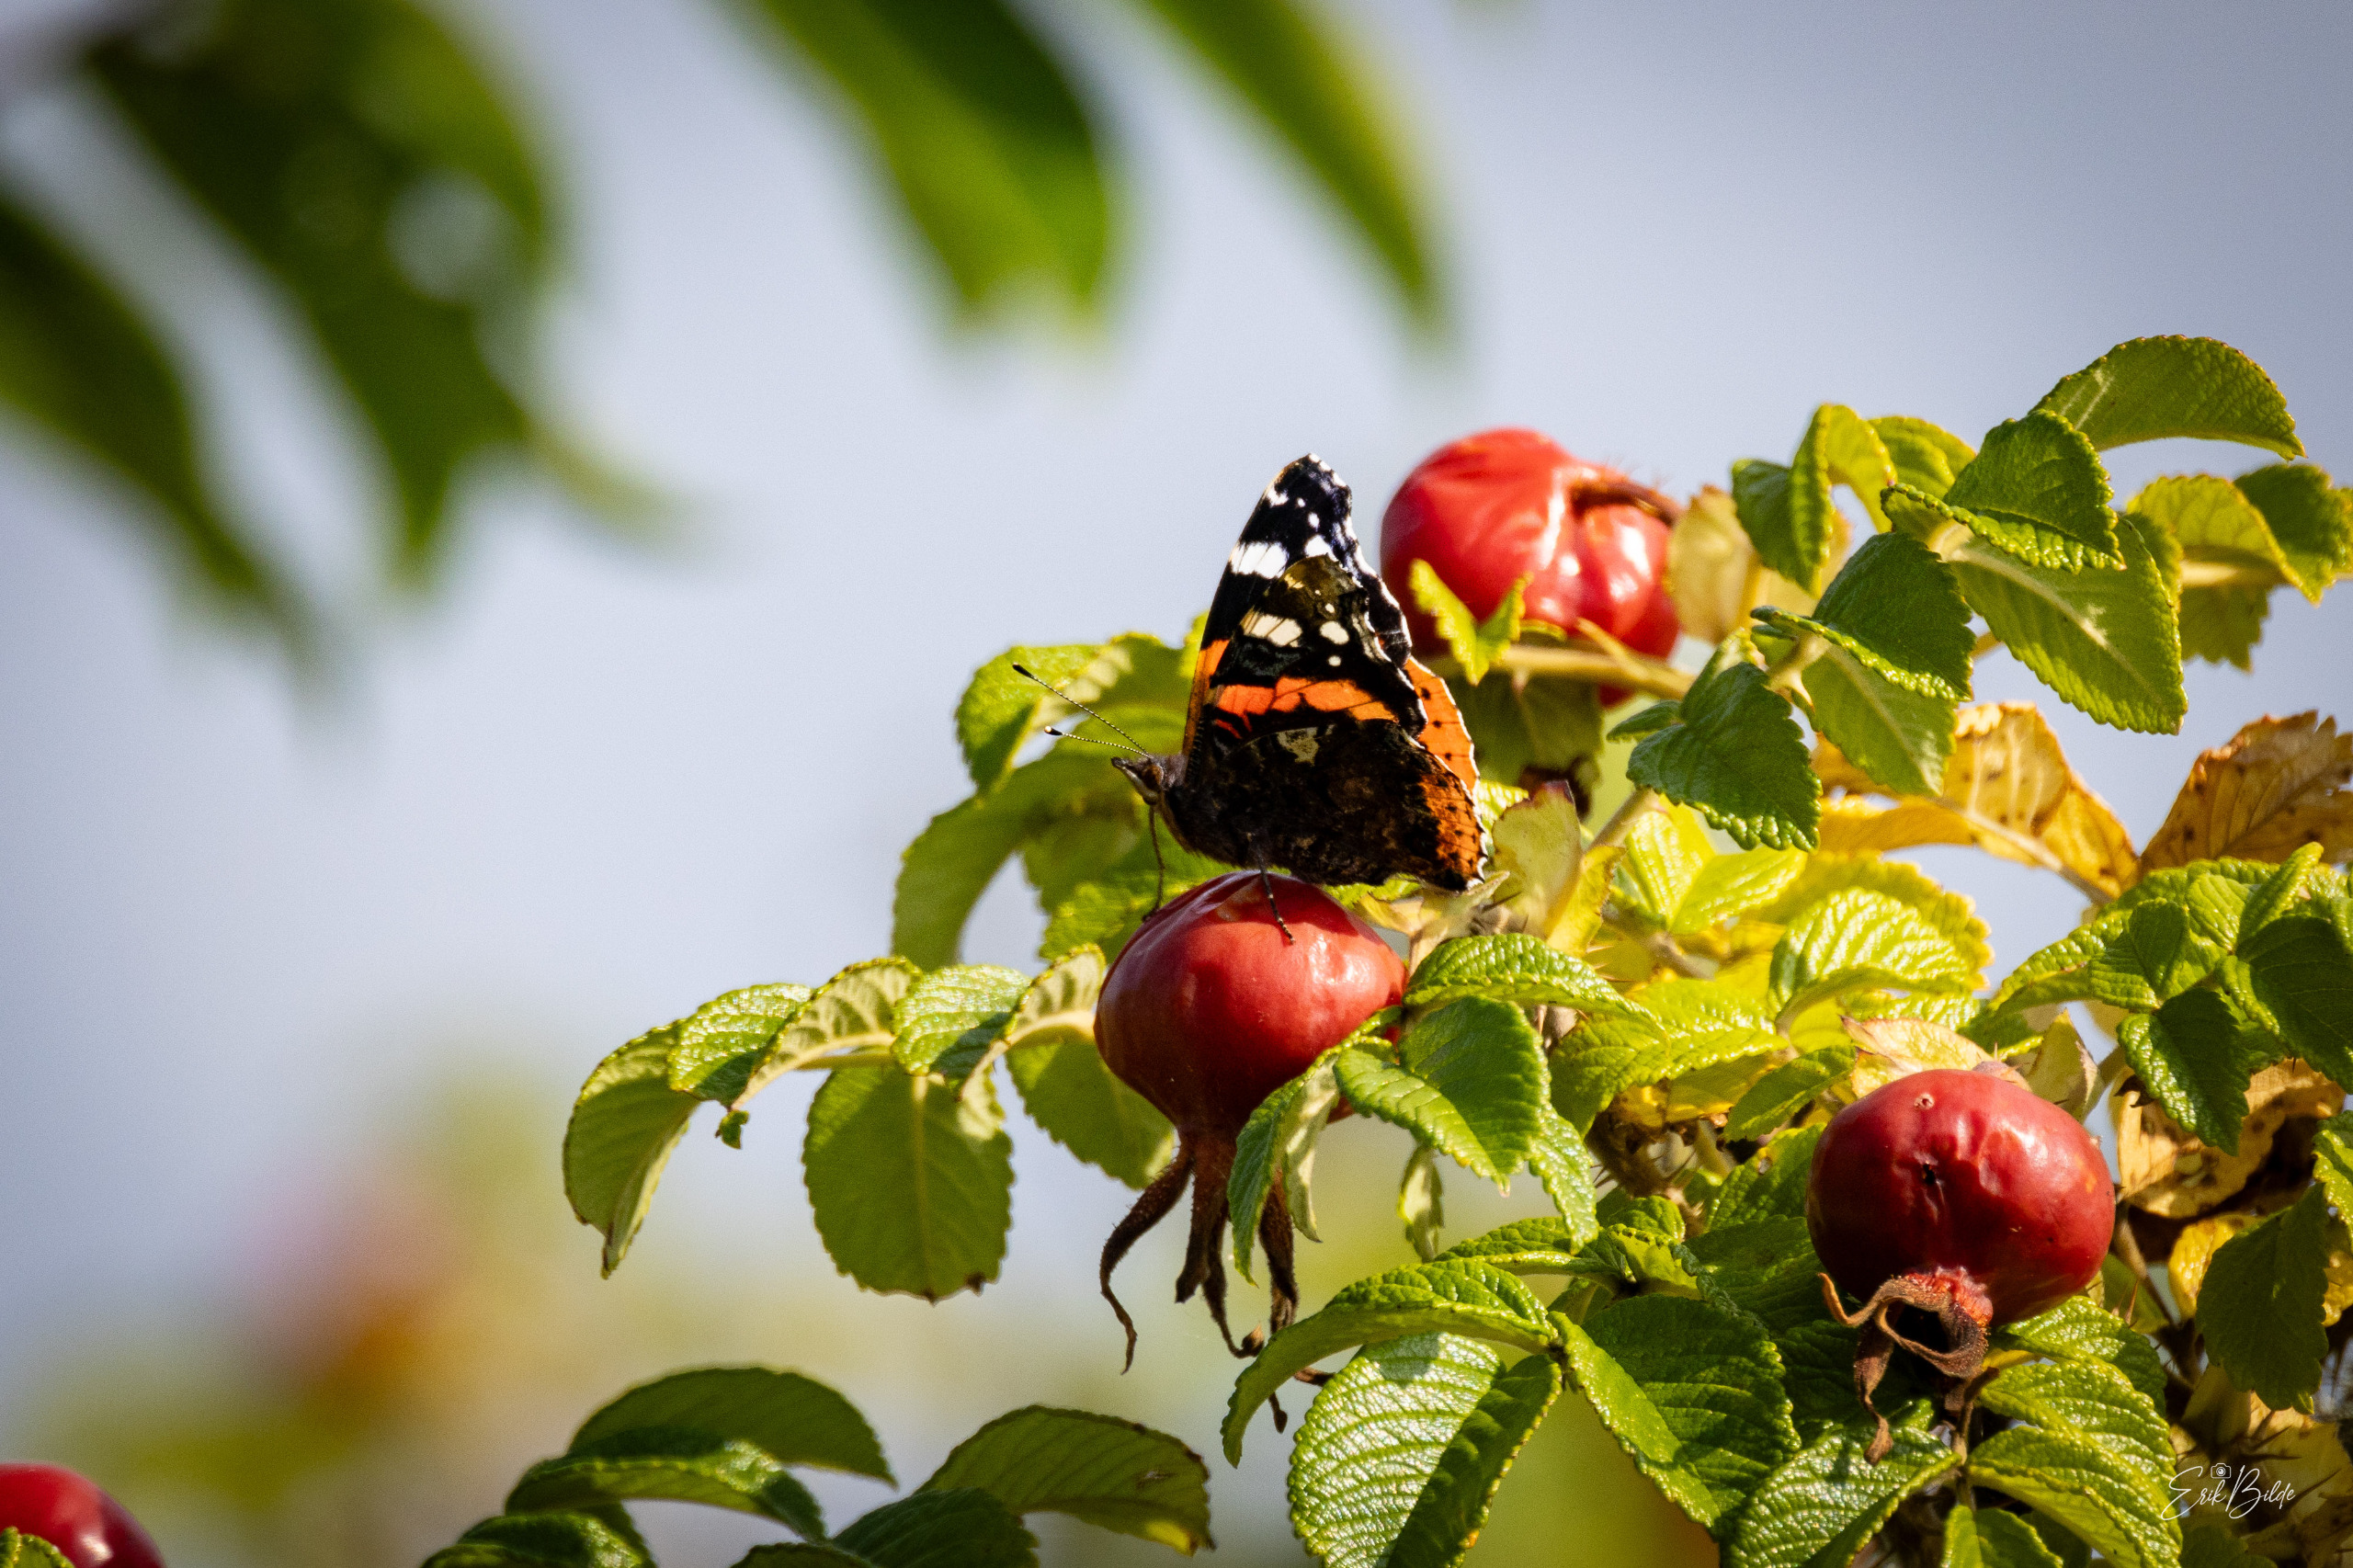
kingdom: Animalia
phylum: Arthropoda
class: Insecta
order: Lepidoptera
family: Nymphalidae
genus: Vanessa
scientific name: Vanessa atalanta
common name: Admiral
